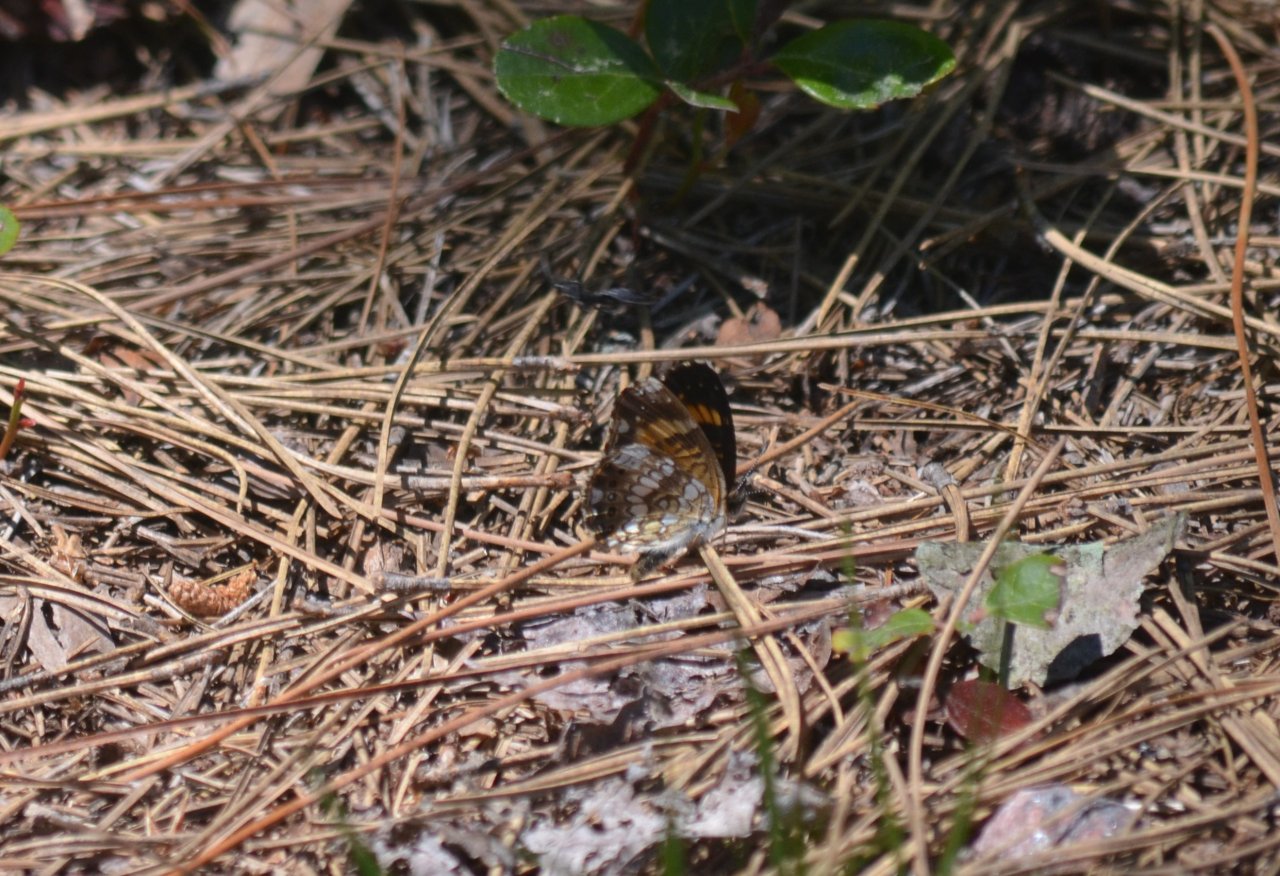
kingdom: Animalia
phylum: Arthropoda
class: Insecta
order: Lepidoptera
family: Nymphalidae
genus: Chlosyne
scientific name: Chlosyne nycteis
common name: Silvery Checkerspot
